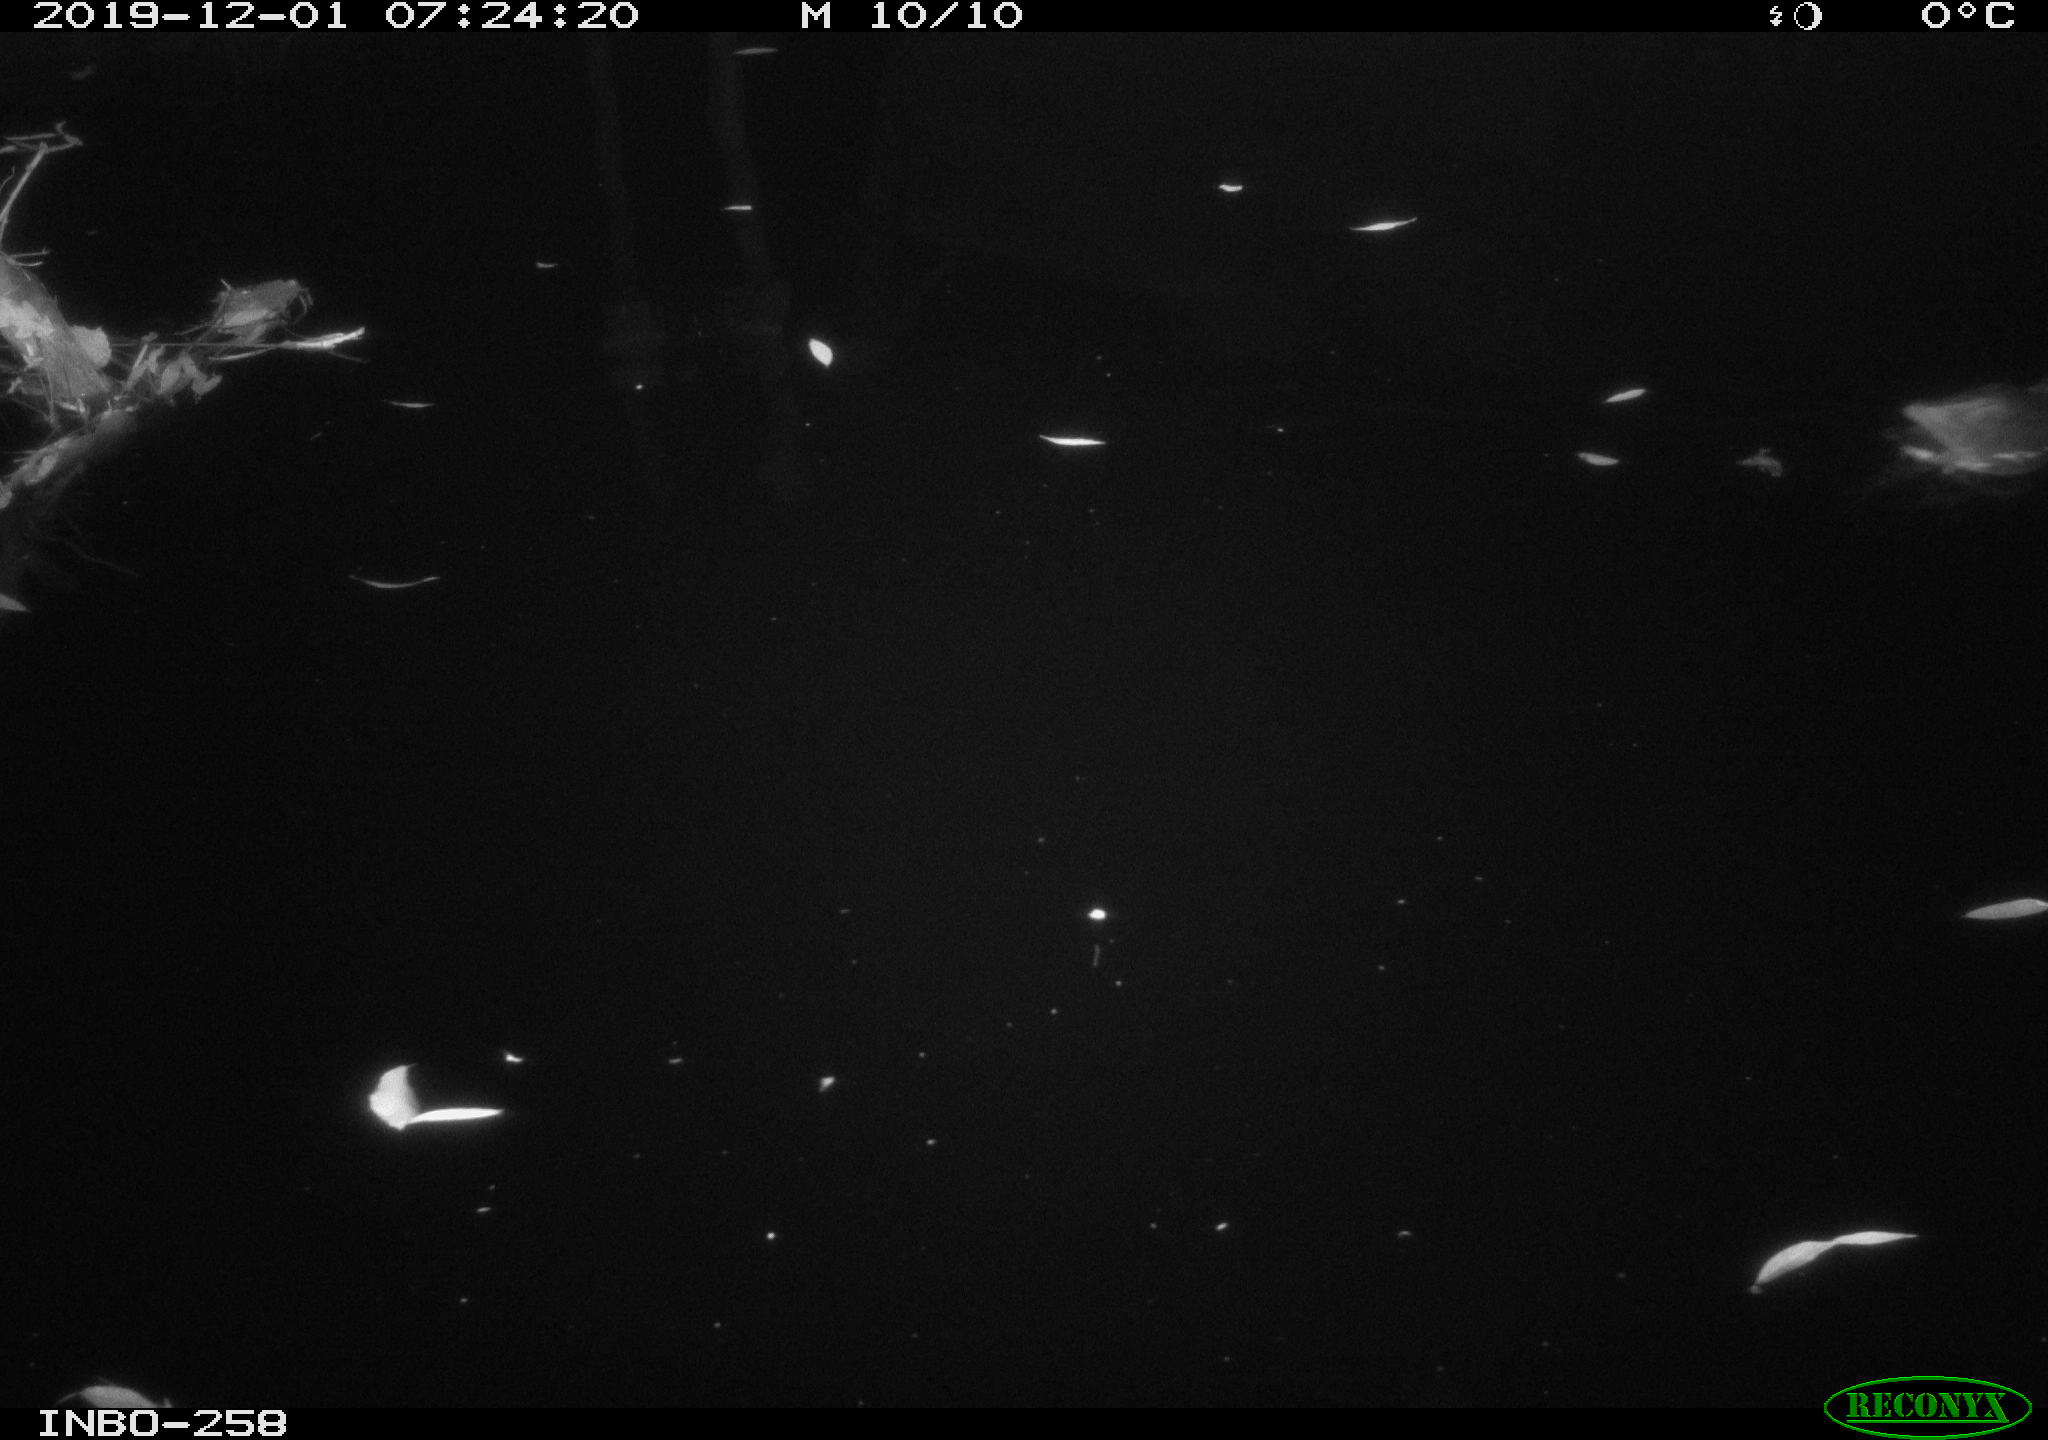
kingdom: Animalia
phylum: Chordata
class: Aves
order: Gruiformes
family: Rallidae
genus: Gallinula
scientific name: Gallinula chloropus
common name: Common moorhen
